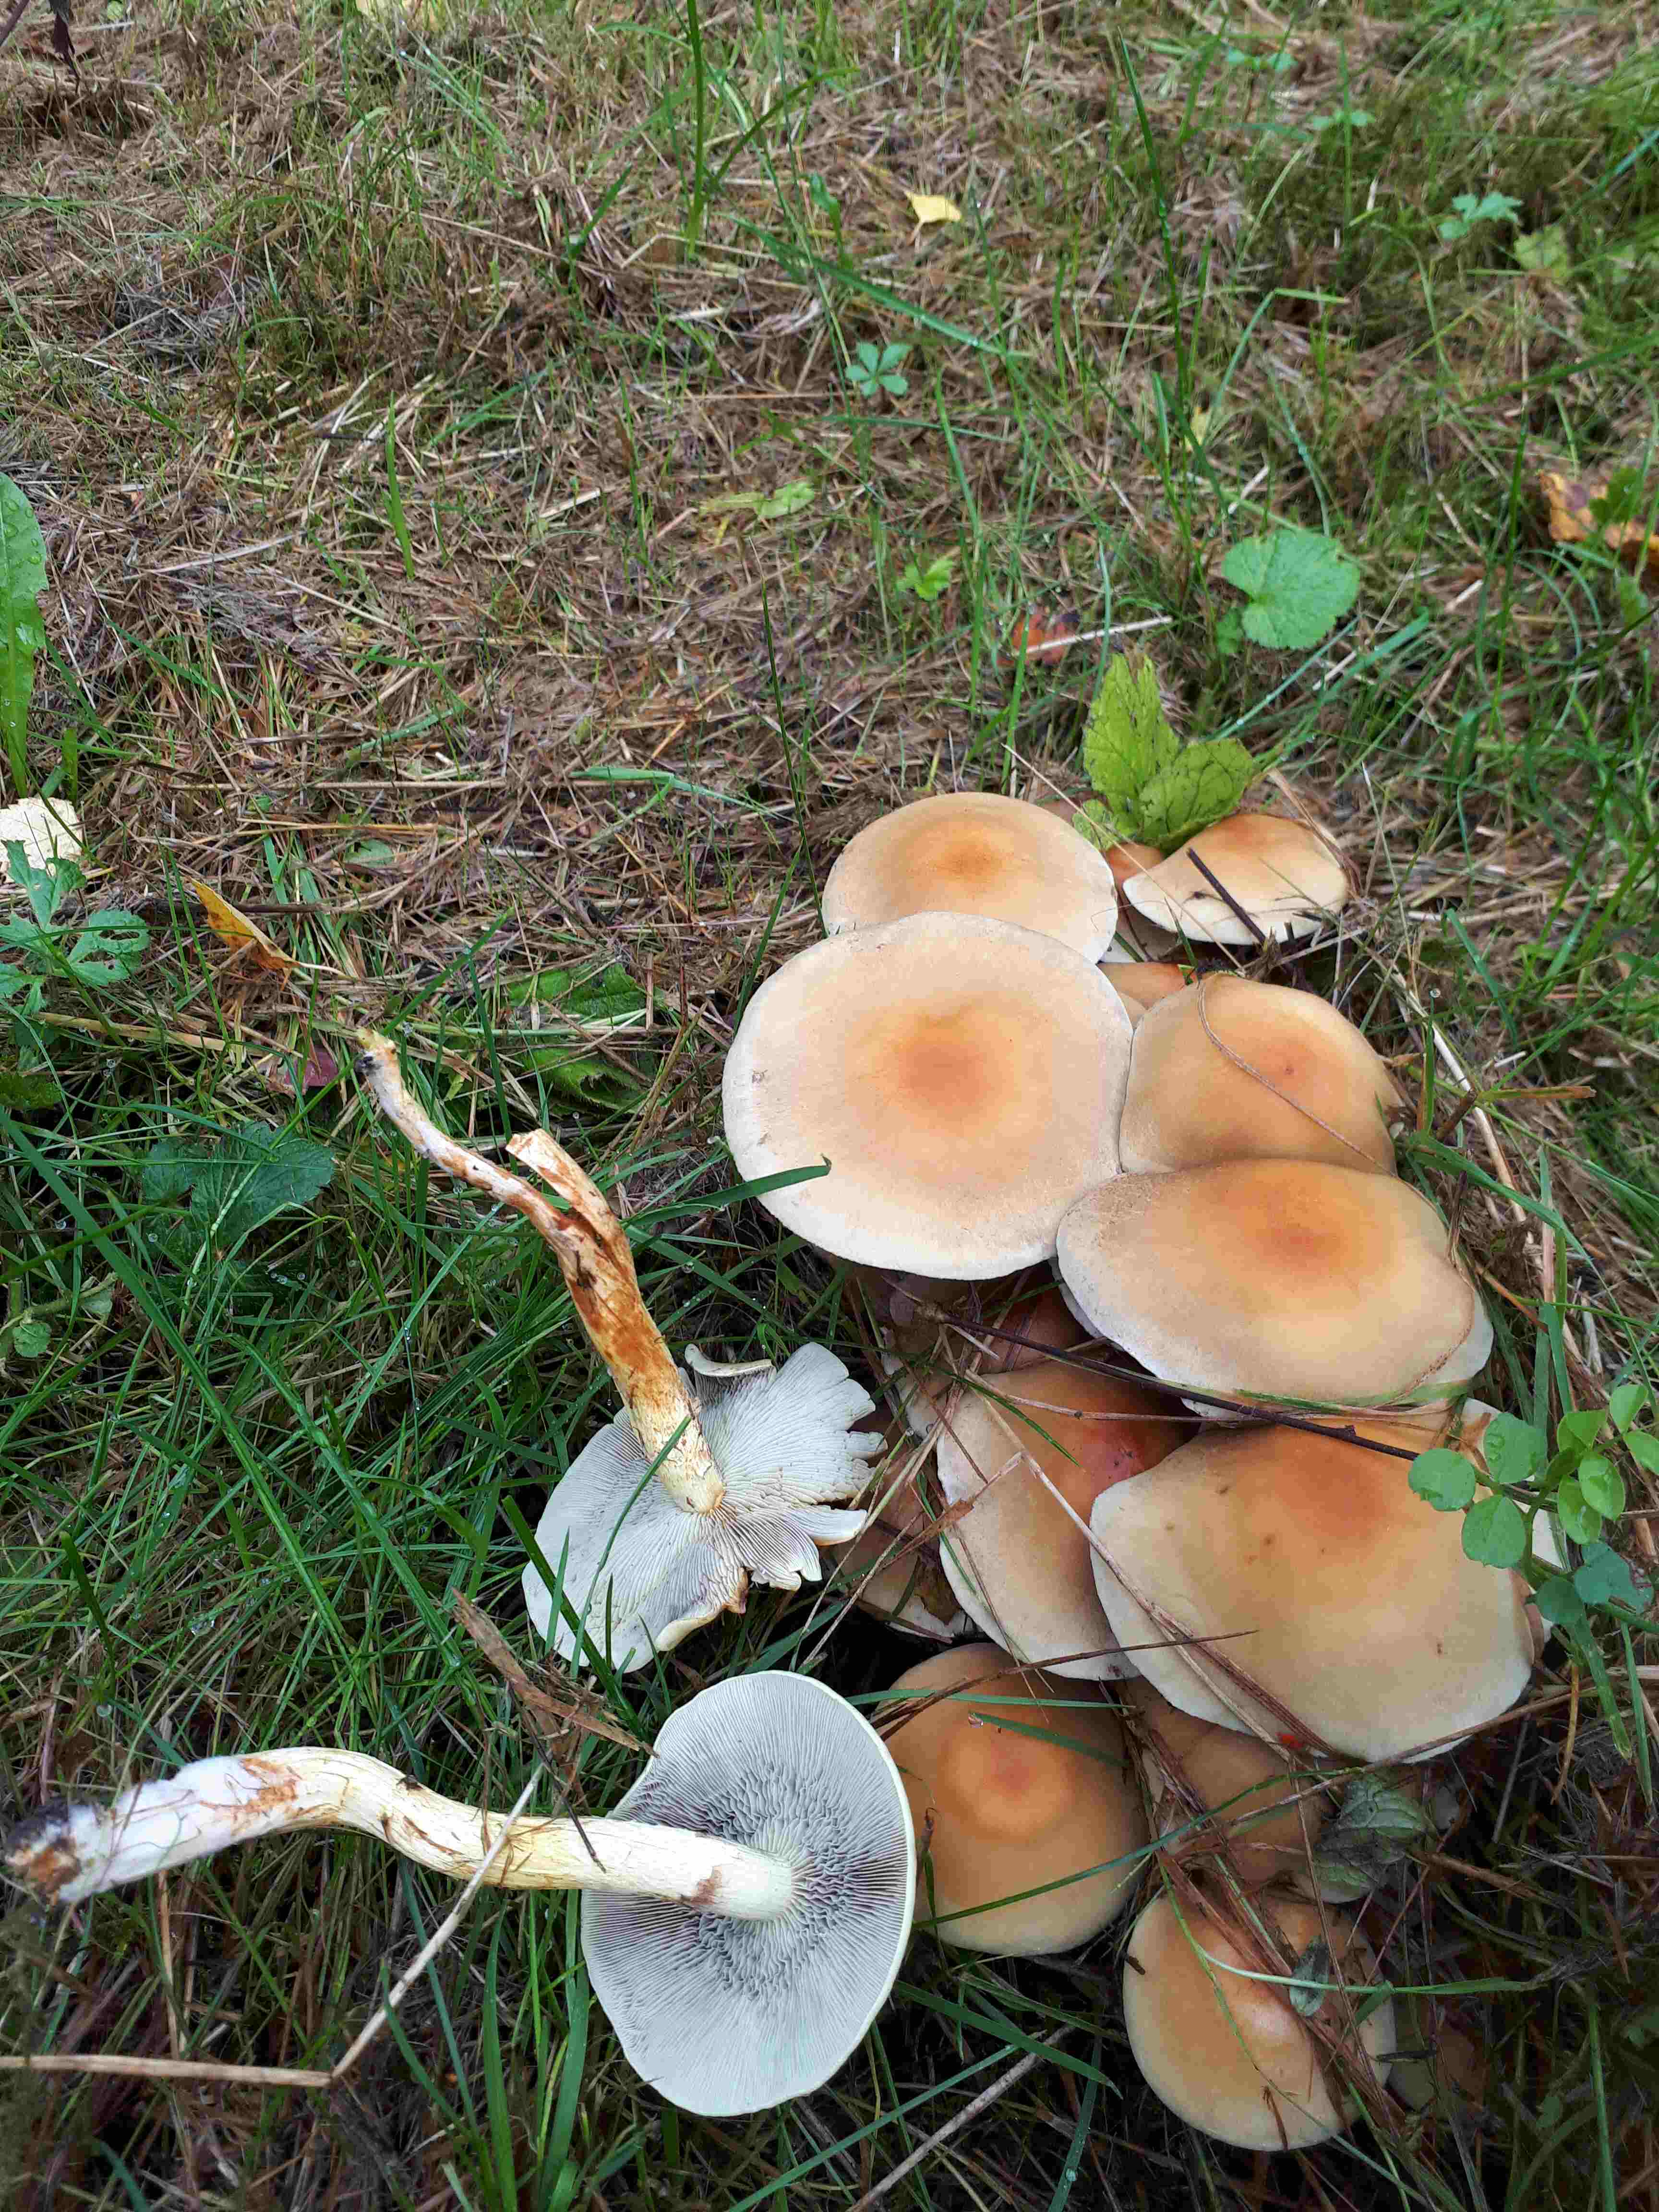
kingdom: Fungi
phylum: Basidiomycota
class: Agaricomycetes
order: Agaricales
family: Strophariaceae
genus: Hypholoma
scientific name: Hypholoma lateritium
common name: teglrød svovlhat
